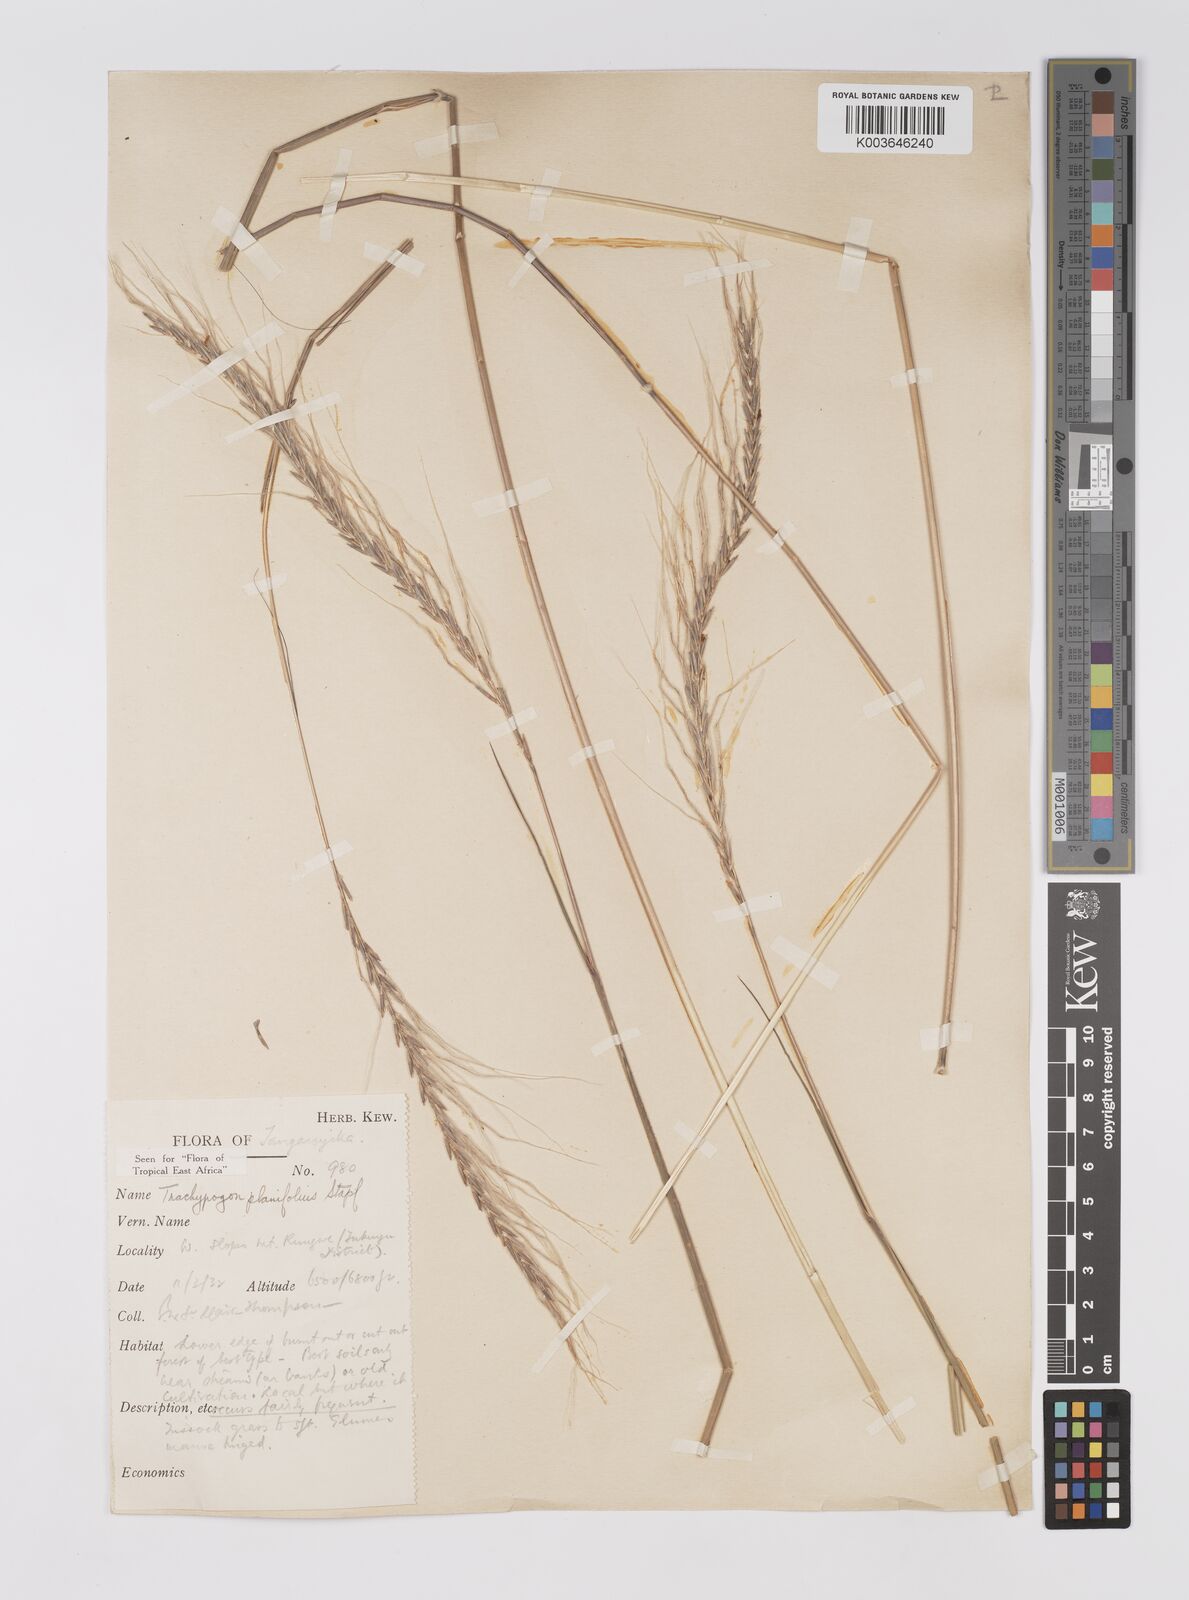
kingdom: Plantae
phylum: Tracheophyta
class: Liliopsida
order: Poales
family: Poaceae
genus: Trachypogon
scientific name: Trachypogon spicatus
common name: Crinkle-awn
